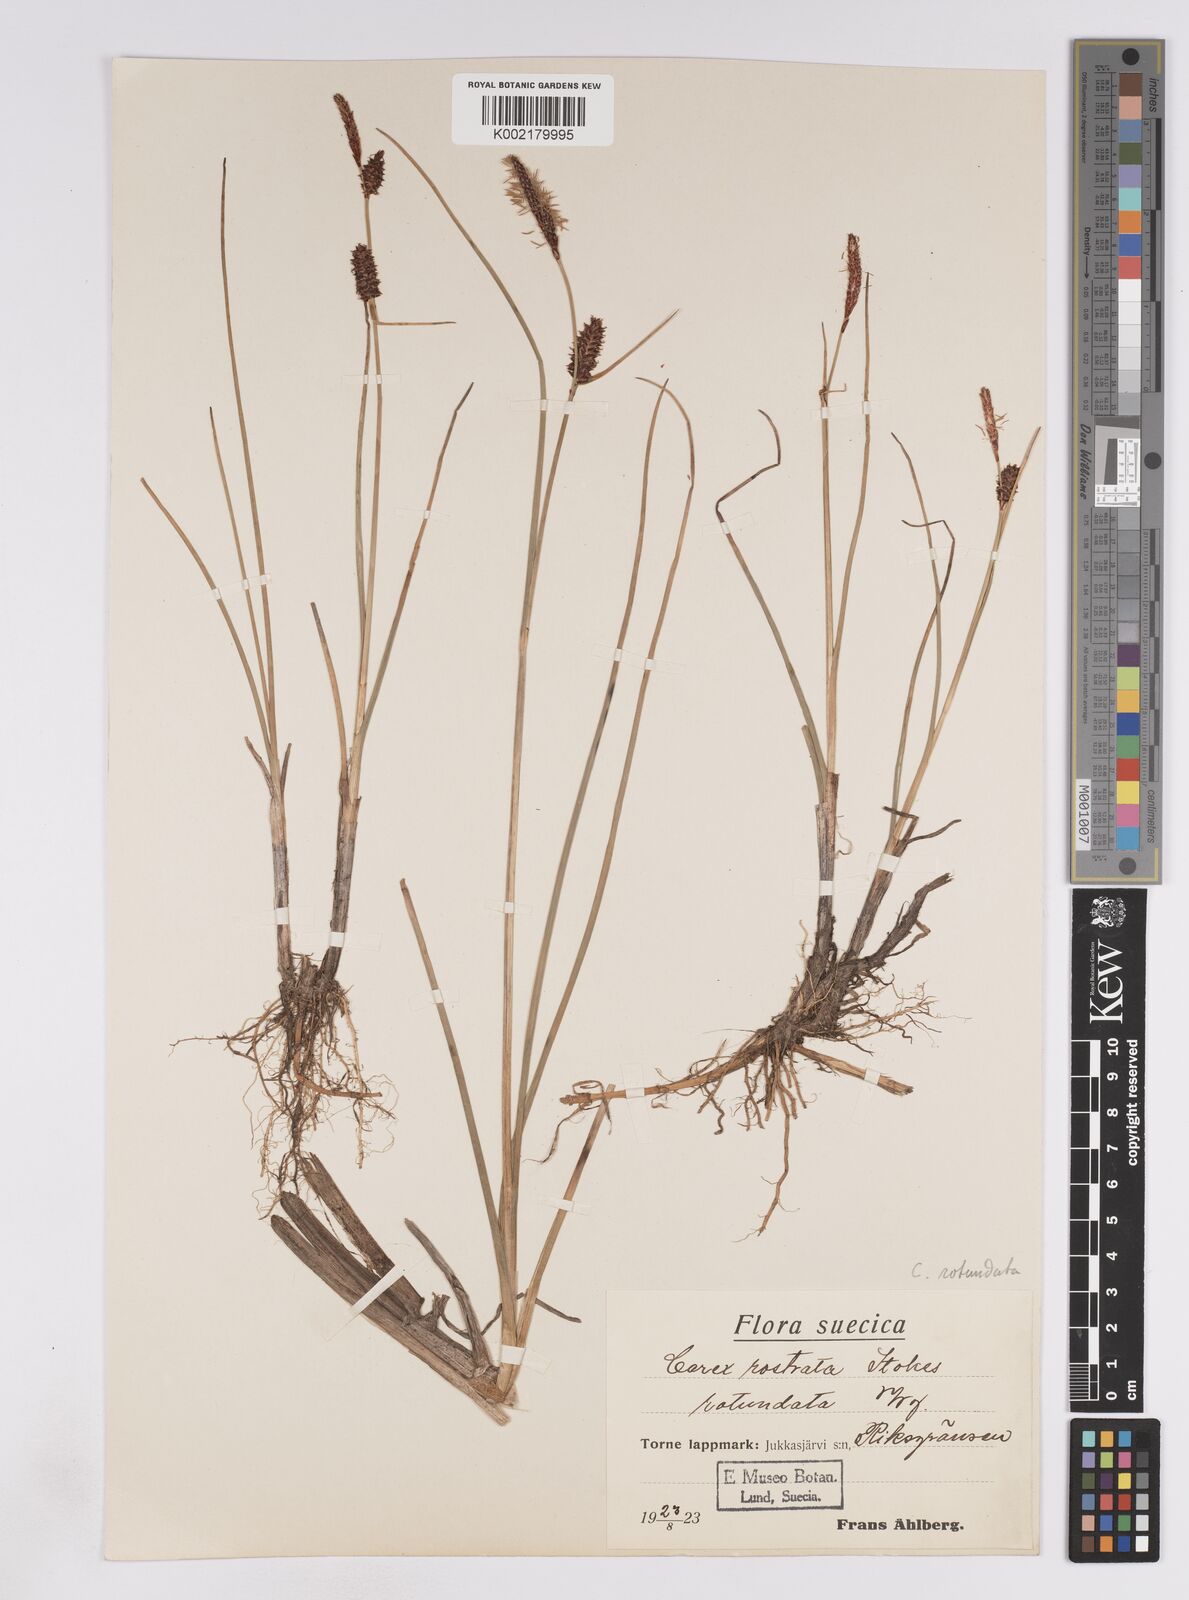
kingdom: Plantae
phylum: Tracheophyta
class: Liliopsida
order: Poales
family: Cyperaceae
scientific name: Cyperaceae
